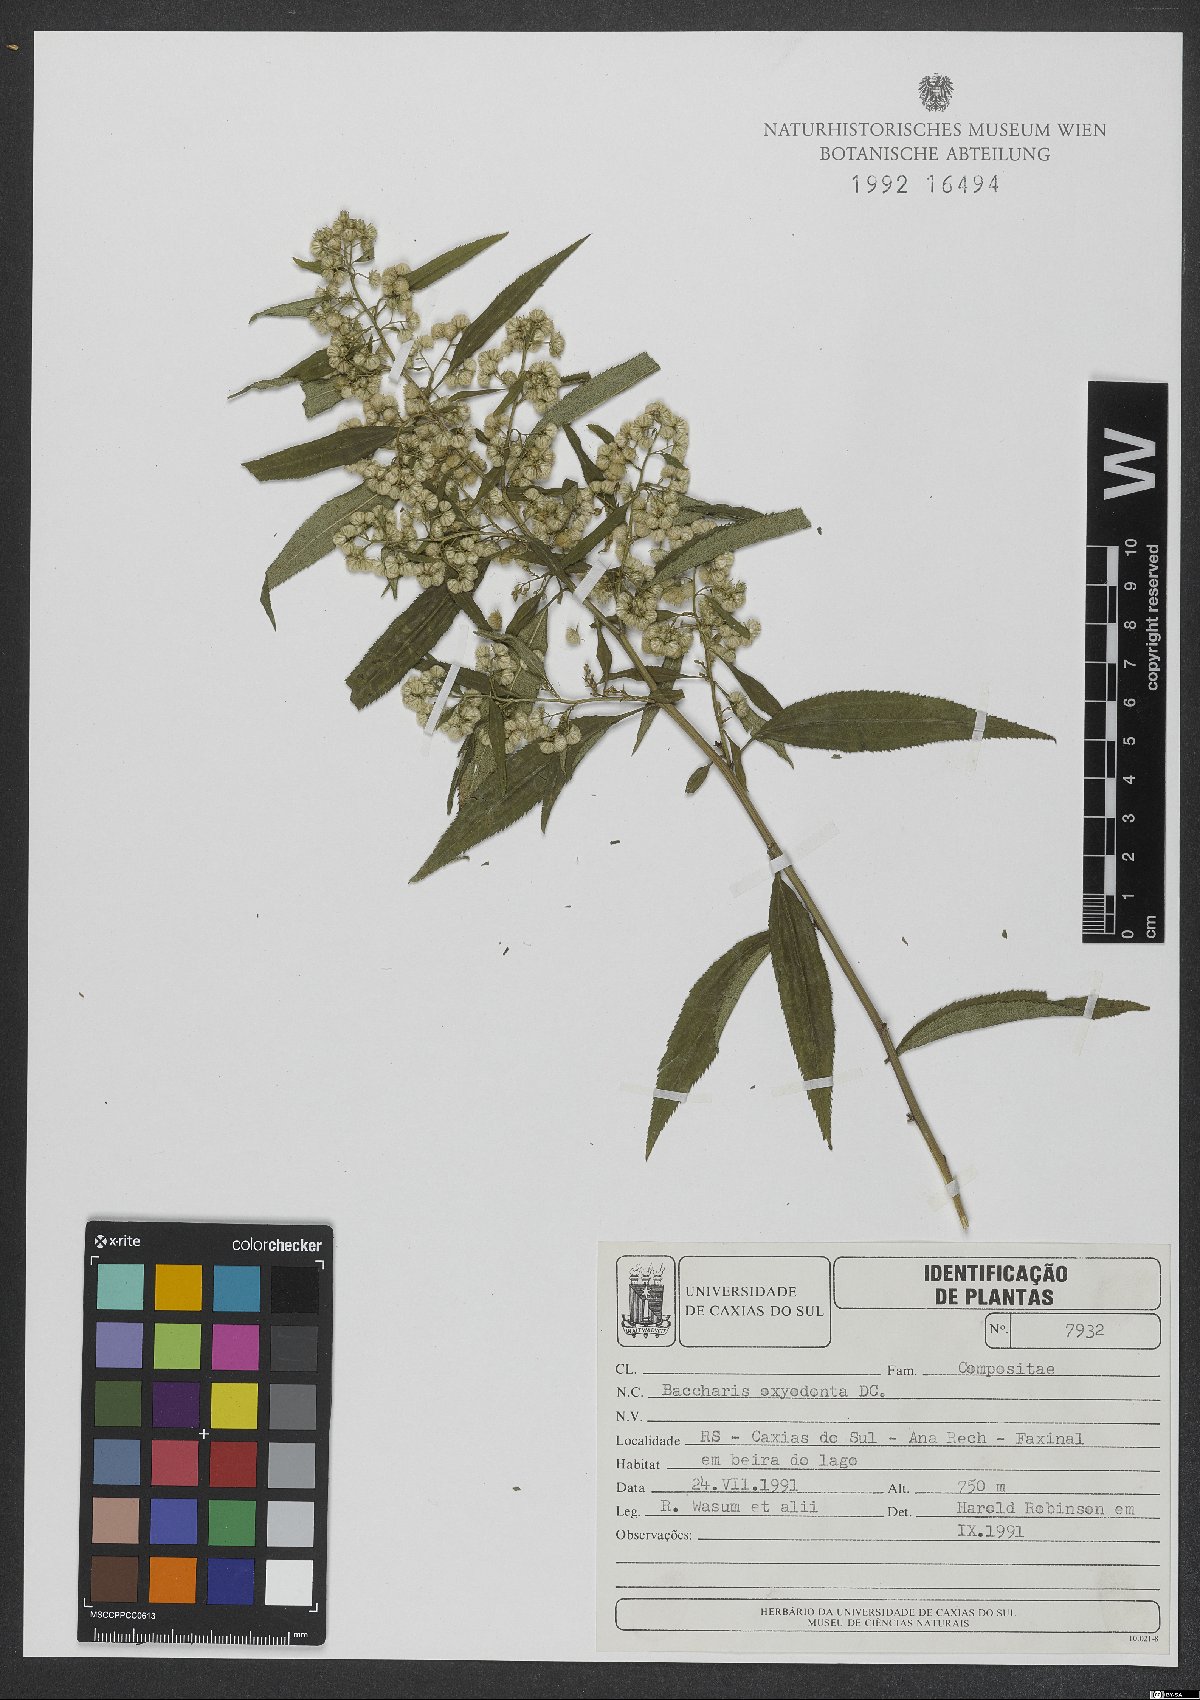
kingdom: Plantae
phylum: Tracheophyta
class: Magnoliopsida
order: Asterales
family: Asteraceae
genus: Baccharis
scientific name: Baccharis oxyodonta
